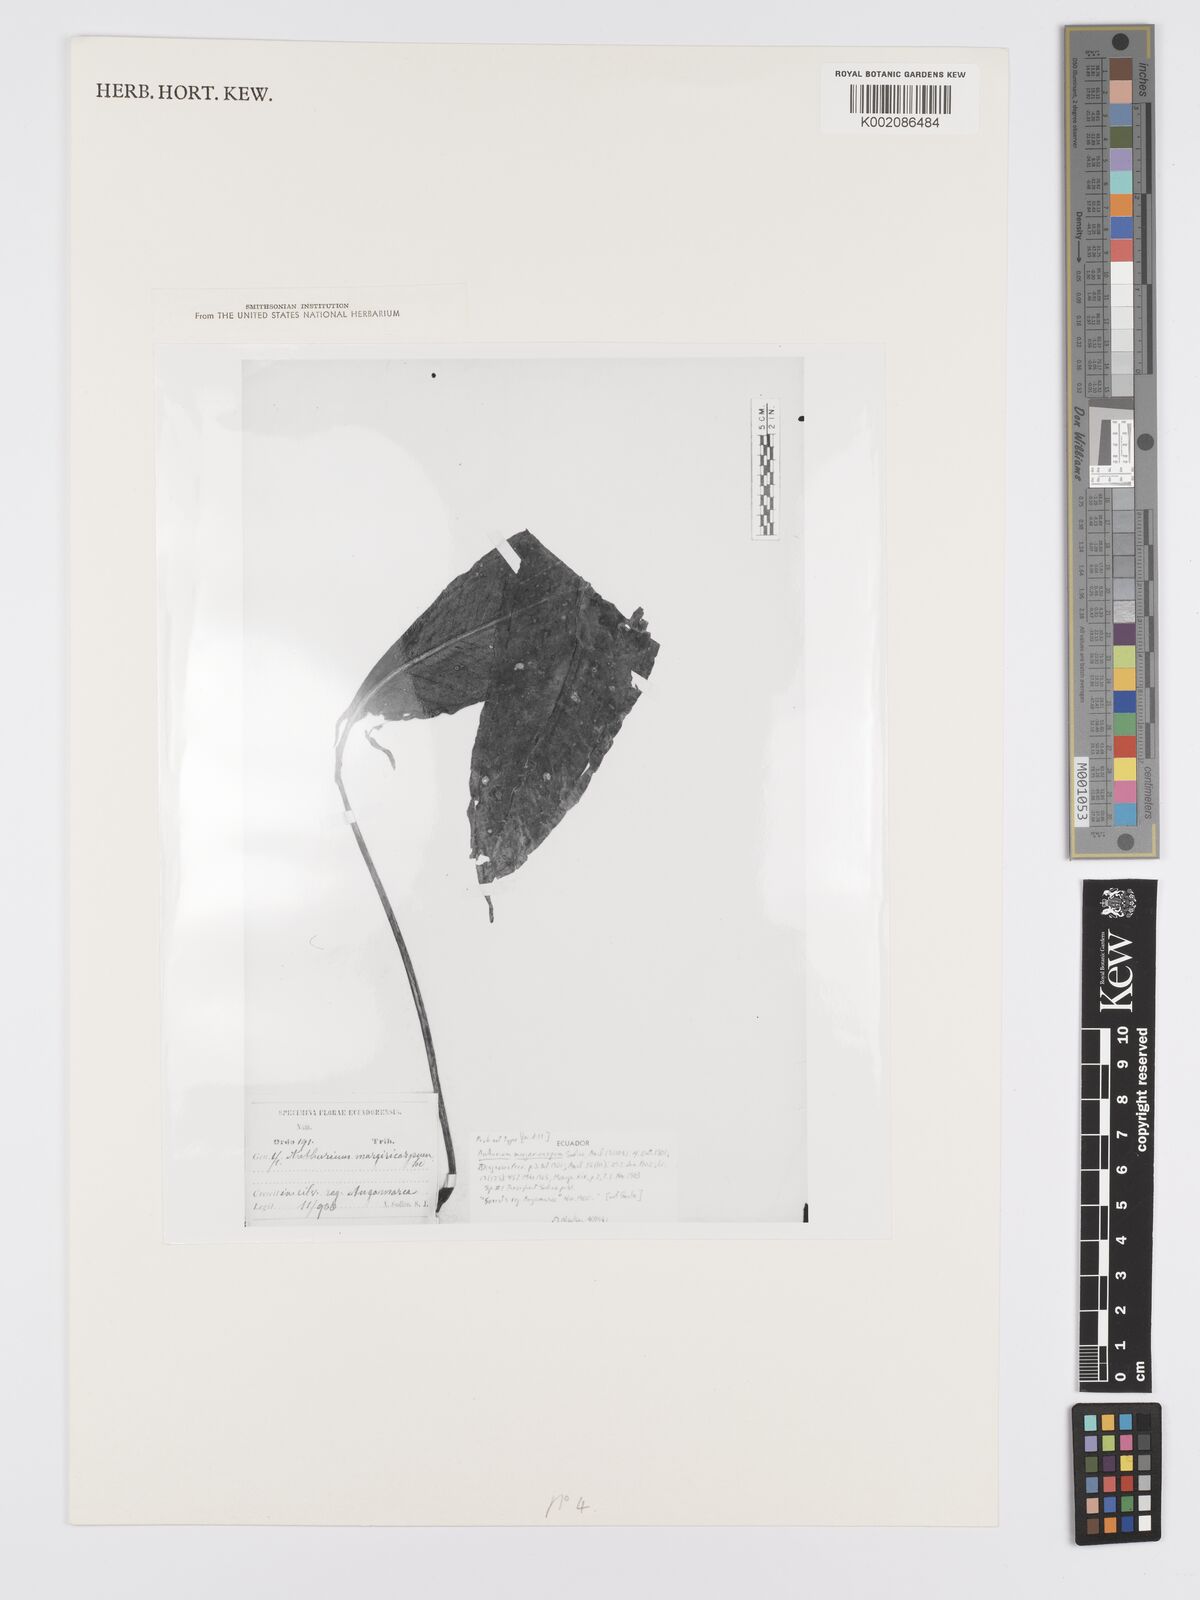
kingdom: Plantae
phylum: Tracheophyta
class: Liliopsida
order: Alismatales
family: Araceae
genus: Anthurium
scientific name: Anthurium margaricarpum
